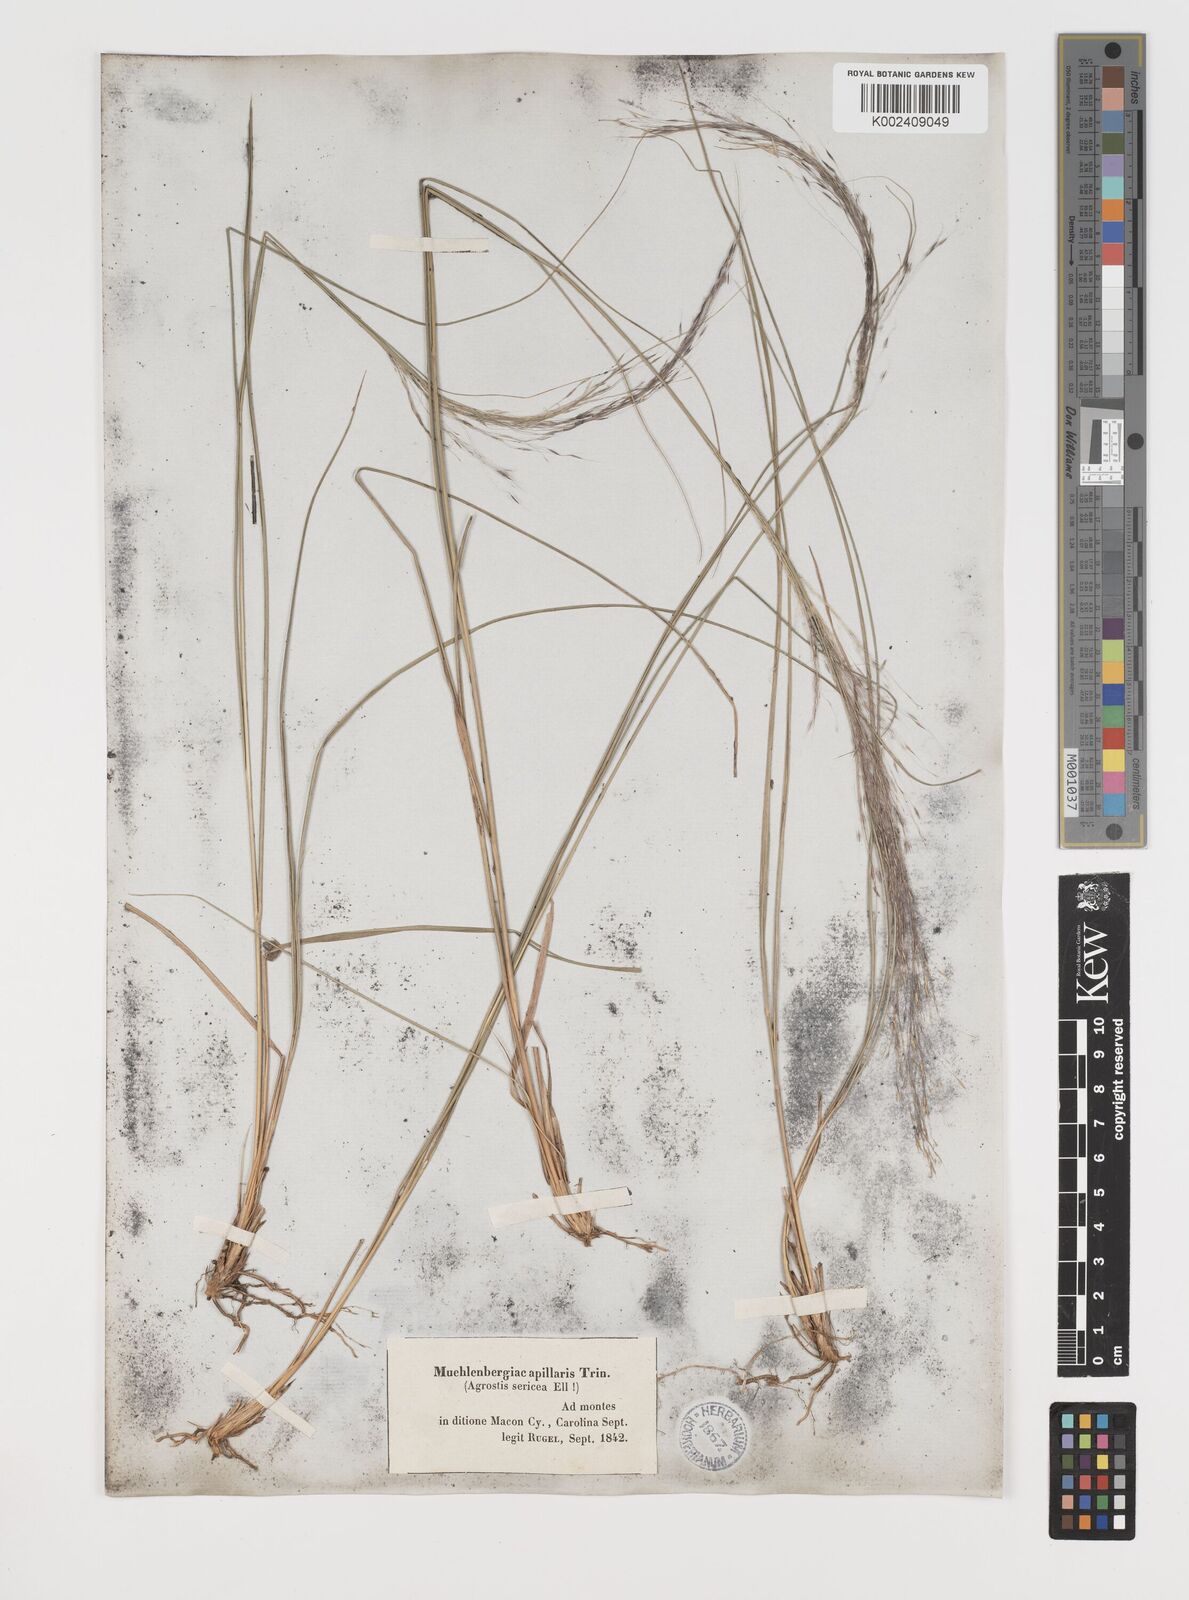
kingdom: Plantae
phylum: Tracheophyta
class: Liliopsida
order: Poales
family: Poaceae
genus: Muhlenbergia
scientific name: Muhlenbergia capillaris
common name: Purple grass
